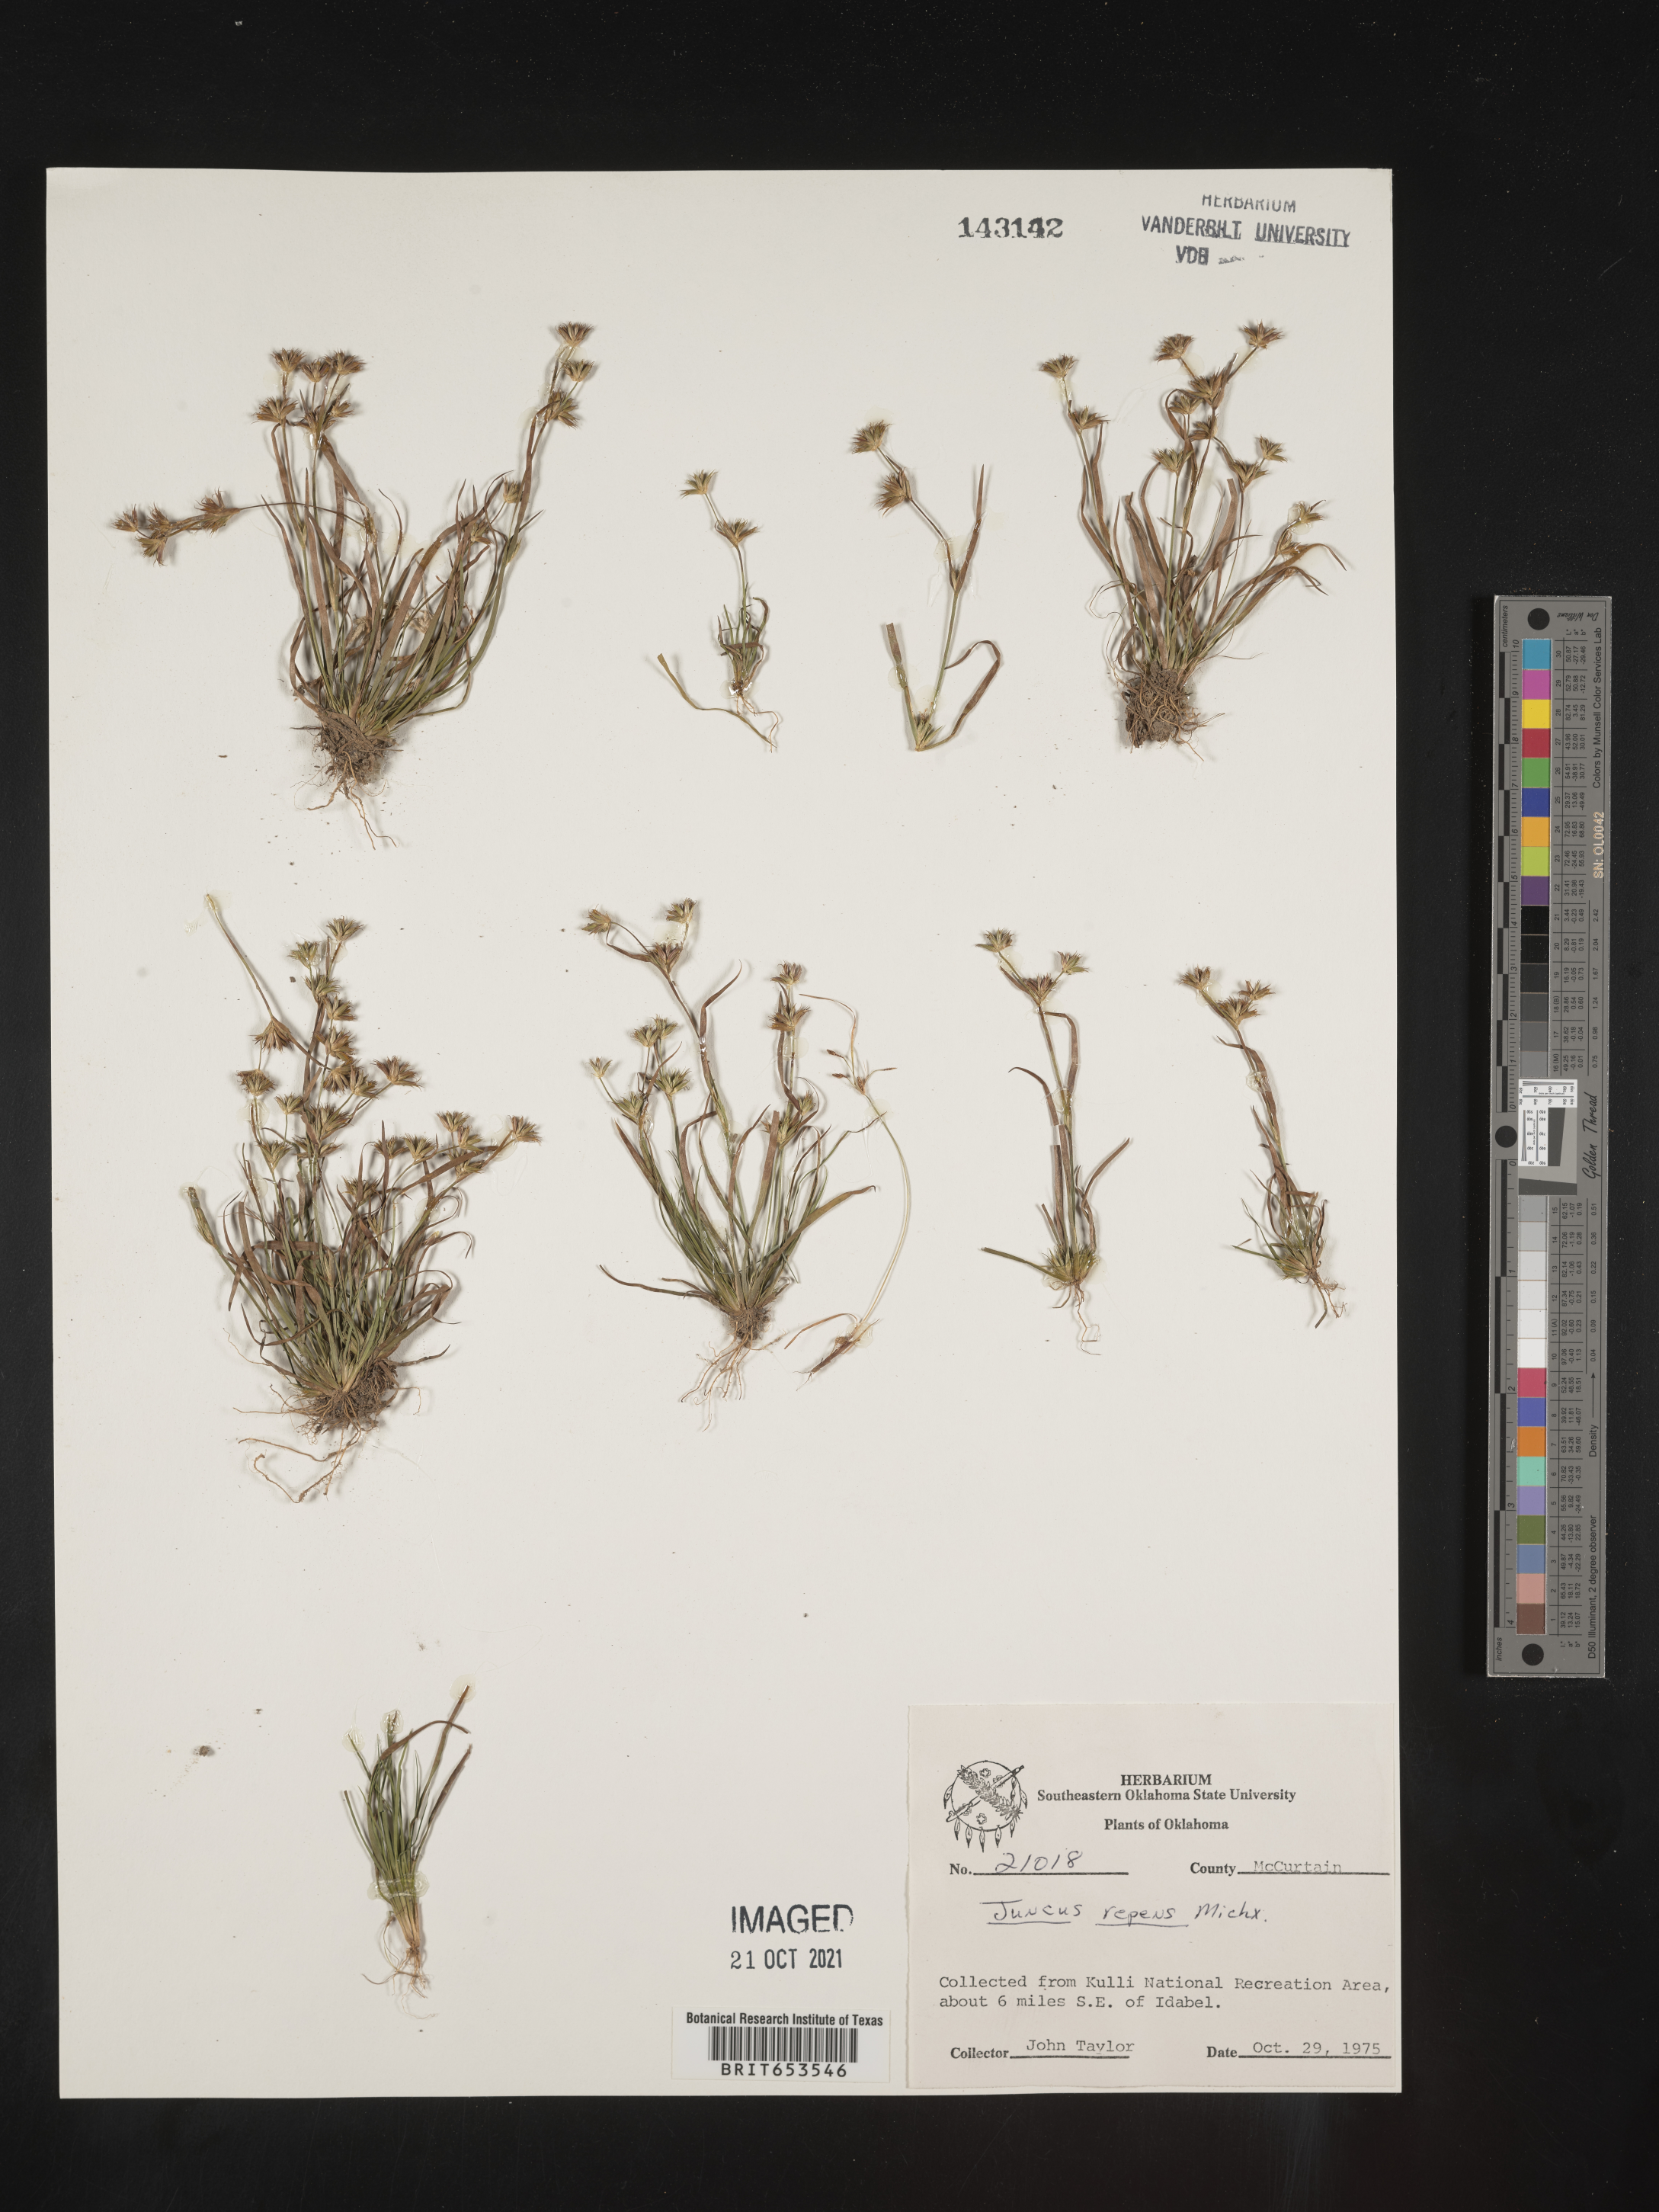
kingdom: Plantae
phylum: Tracheophyta
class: Liliopsida
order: Poales
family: Juncaceae
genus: Juncus
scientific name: Juncus repens
